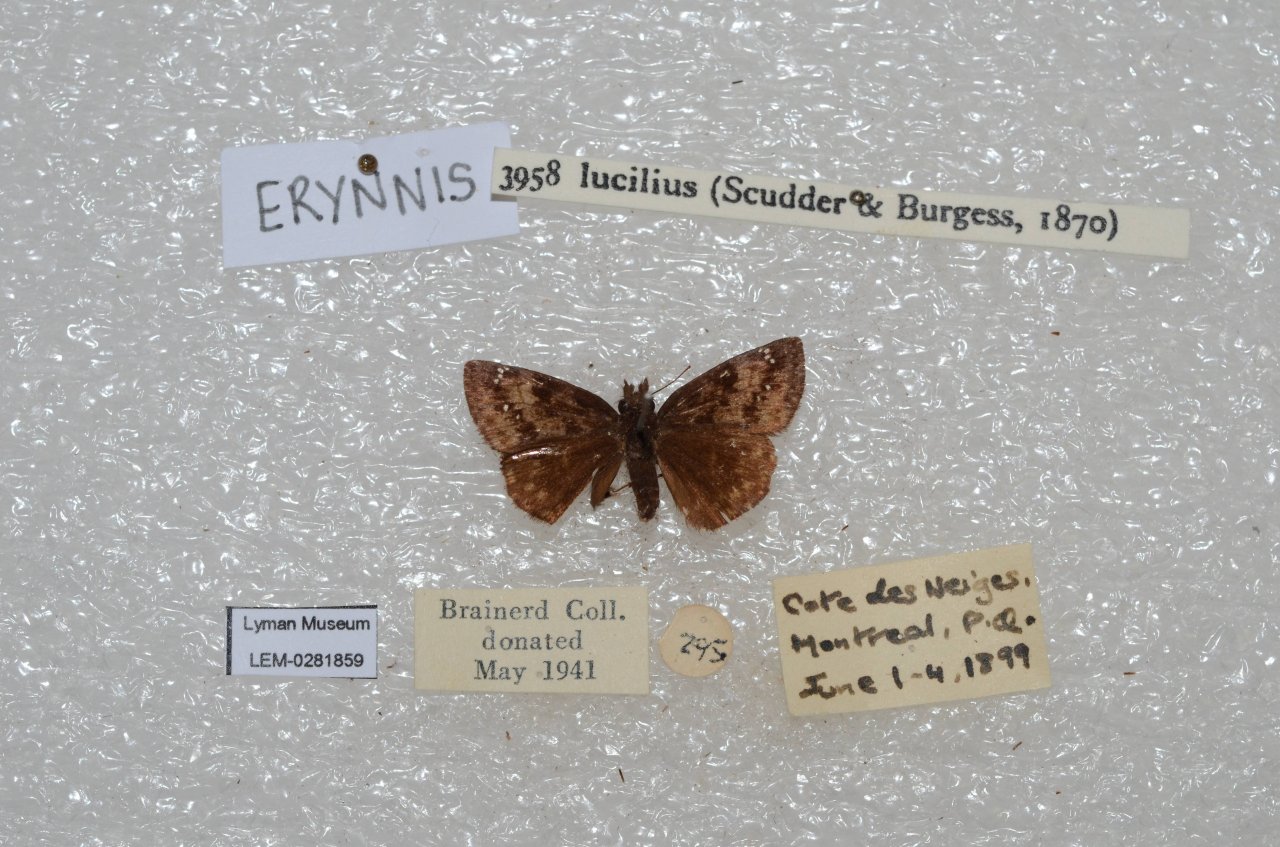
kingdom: Animalia
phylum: Arthropoda
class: Insecta
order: Lepidoptera
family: Hesperiidae
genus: Gesta
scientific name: Gesta
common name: Columbine Duskywing
